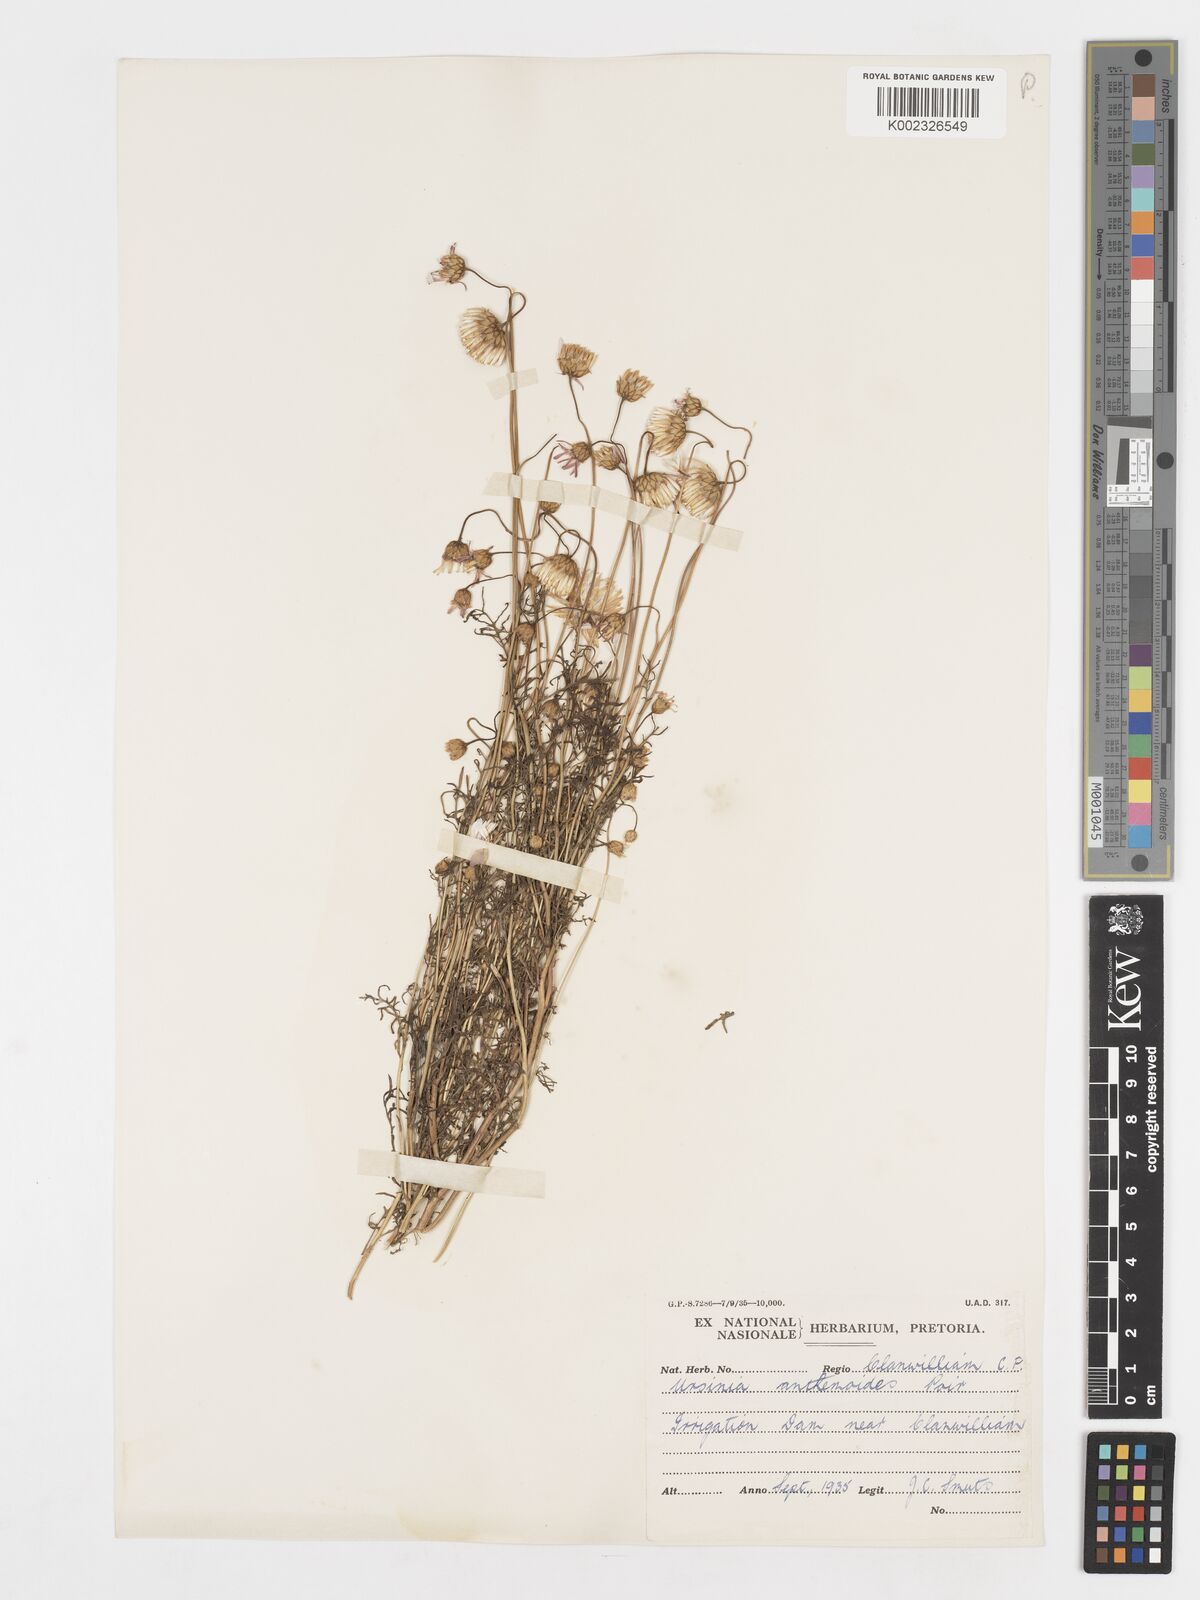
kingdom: Plantae
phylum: Tracheophyta
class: Magnoliopsida
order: Asterales
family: Asteraceae
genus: Ursinia
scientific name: Ursinia anethoides
